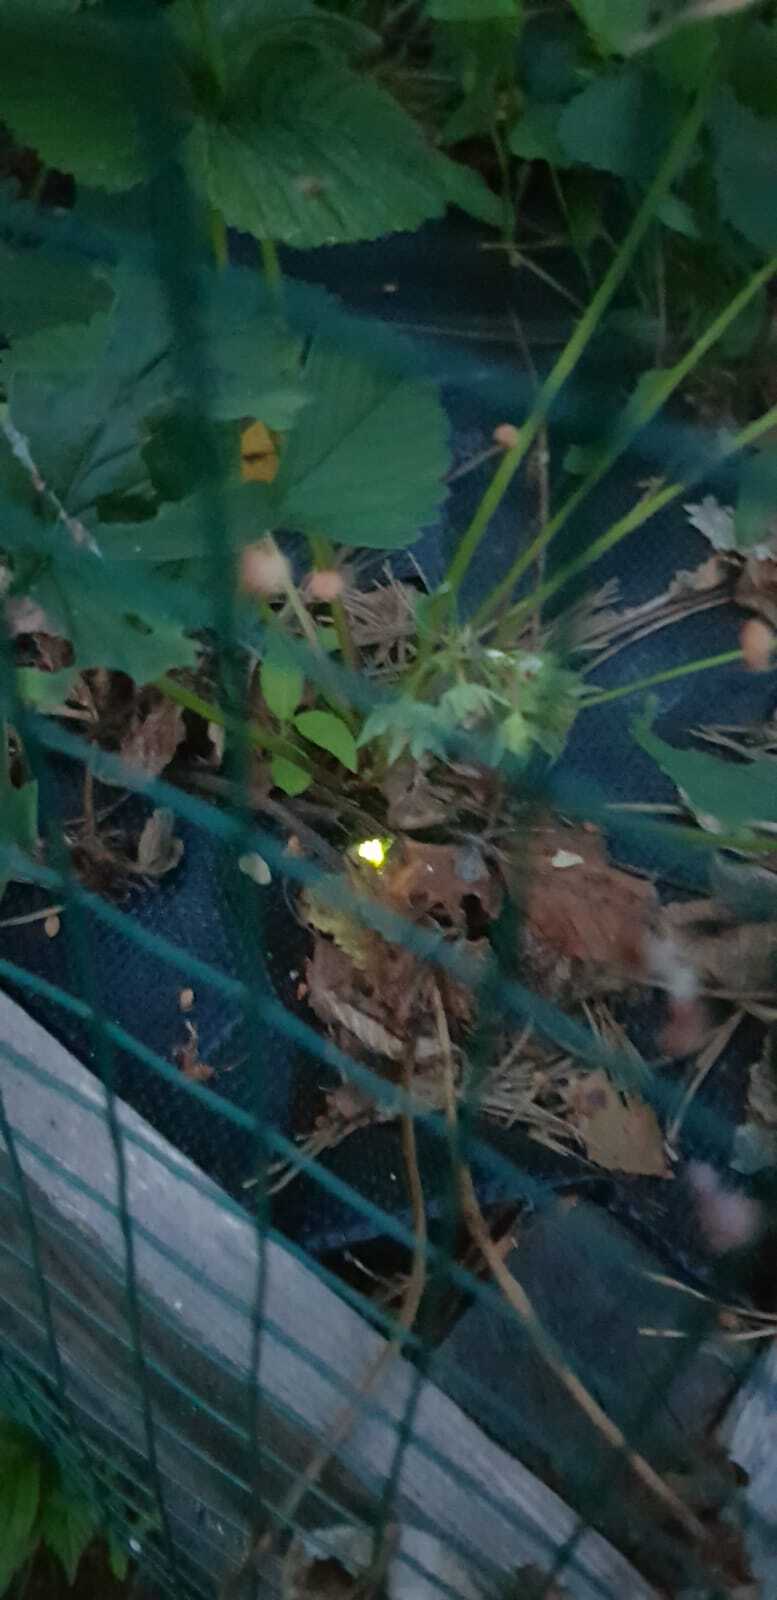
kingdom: Animalia
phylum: Arthropoda
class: Insecta
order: Coleoptera
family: Lampyridae
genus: Lampyris
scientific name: Lampyris noctiluca
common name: Glow-worm
